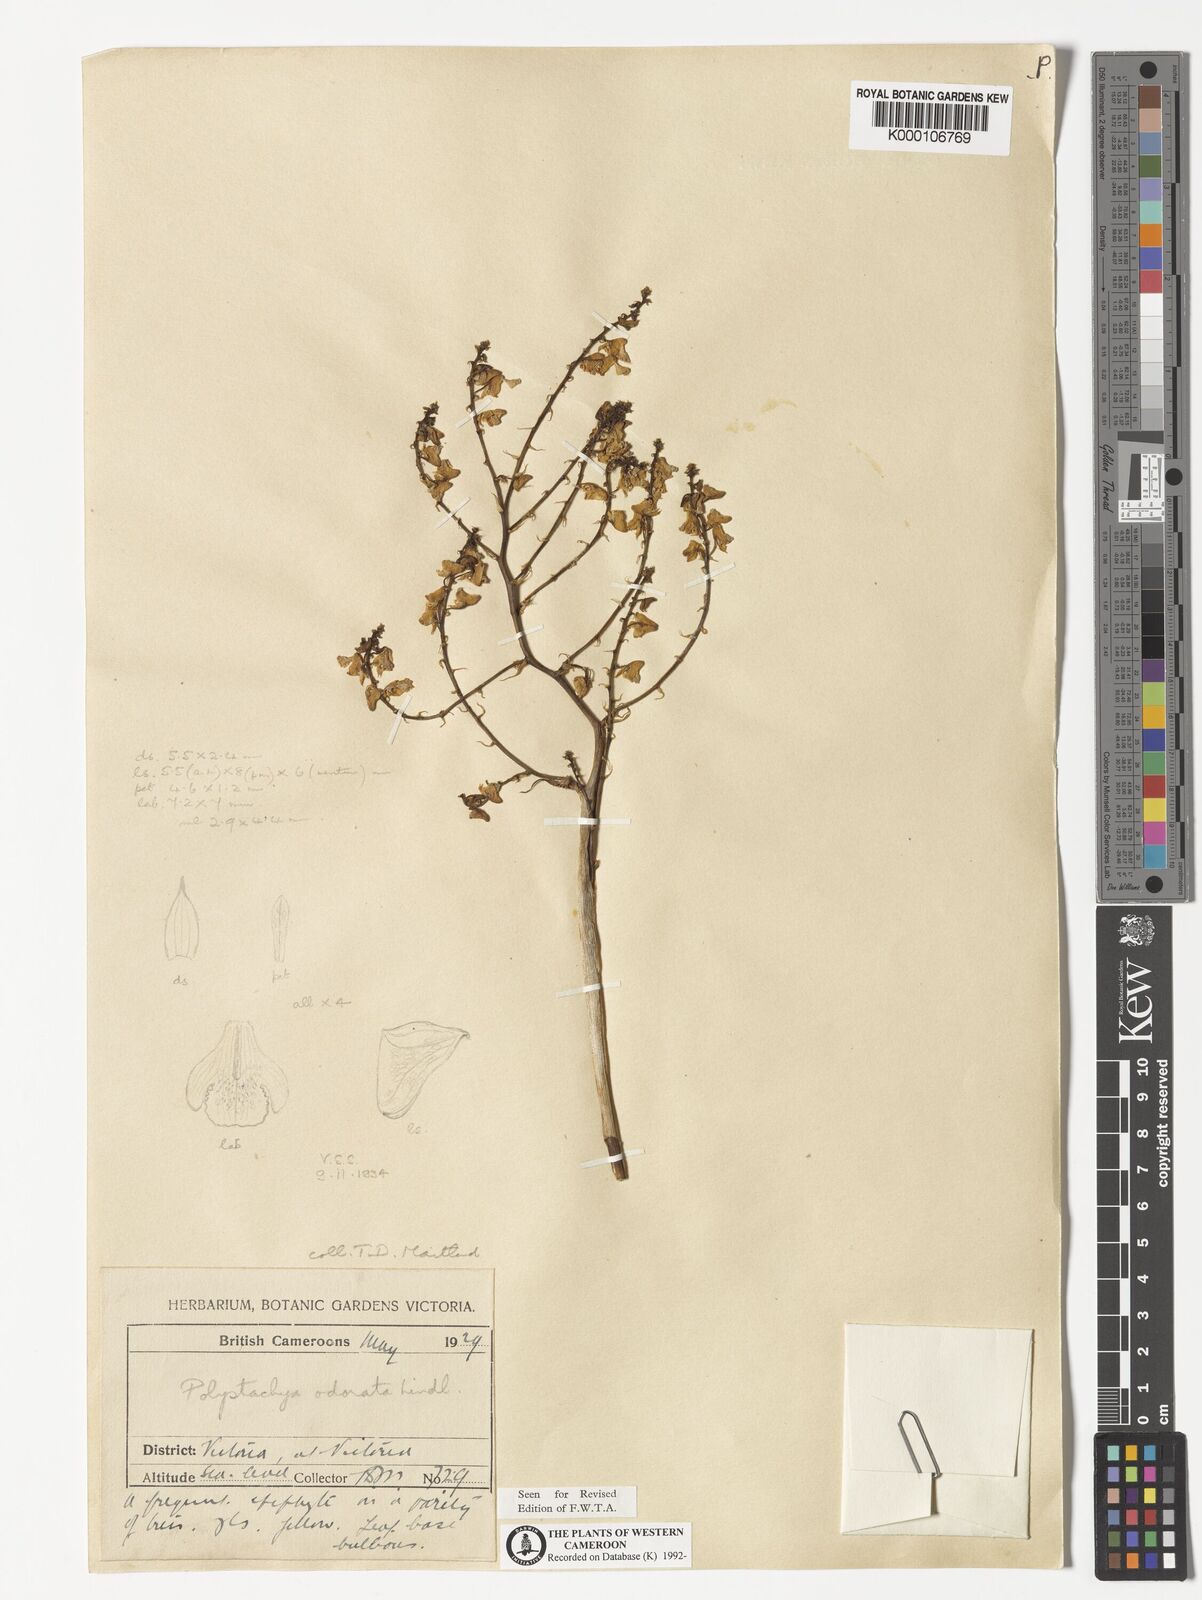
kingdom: Plantae
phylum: Tracheophyta
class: Liliopsida
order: Asparagales
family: Orchidaceae
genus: Polystachya
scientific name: Polystachya odorata
